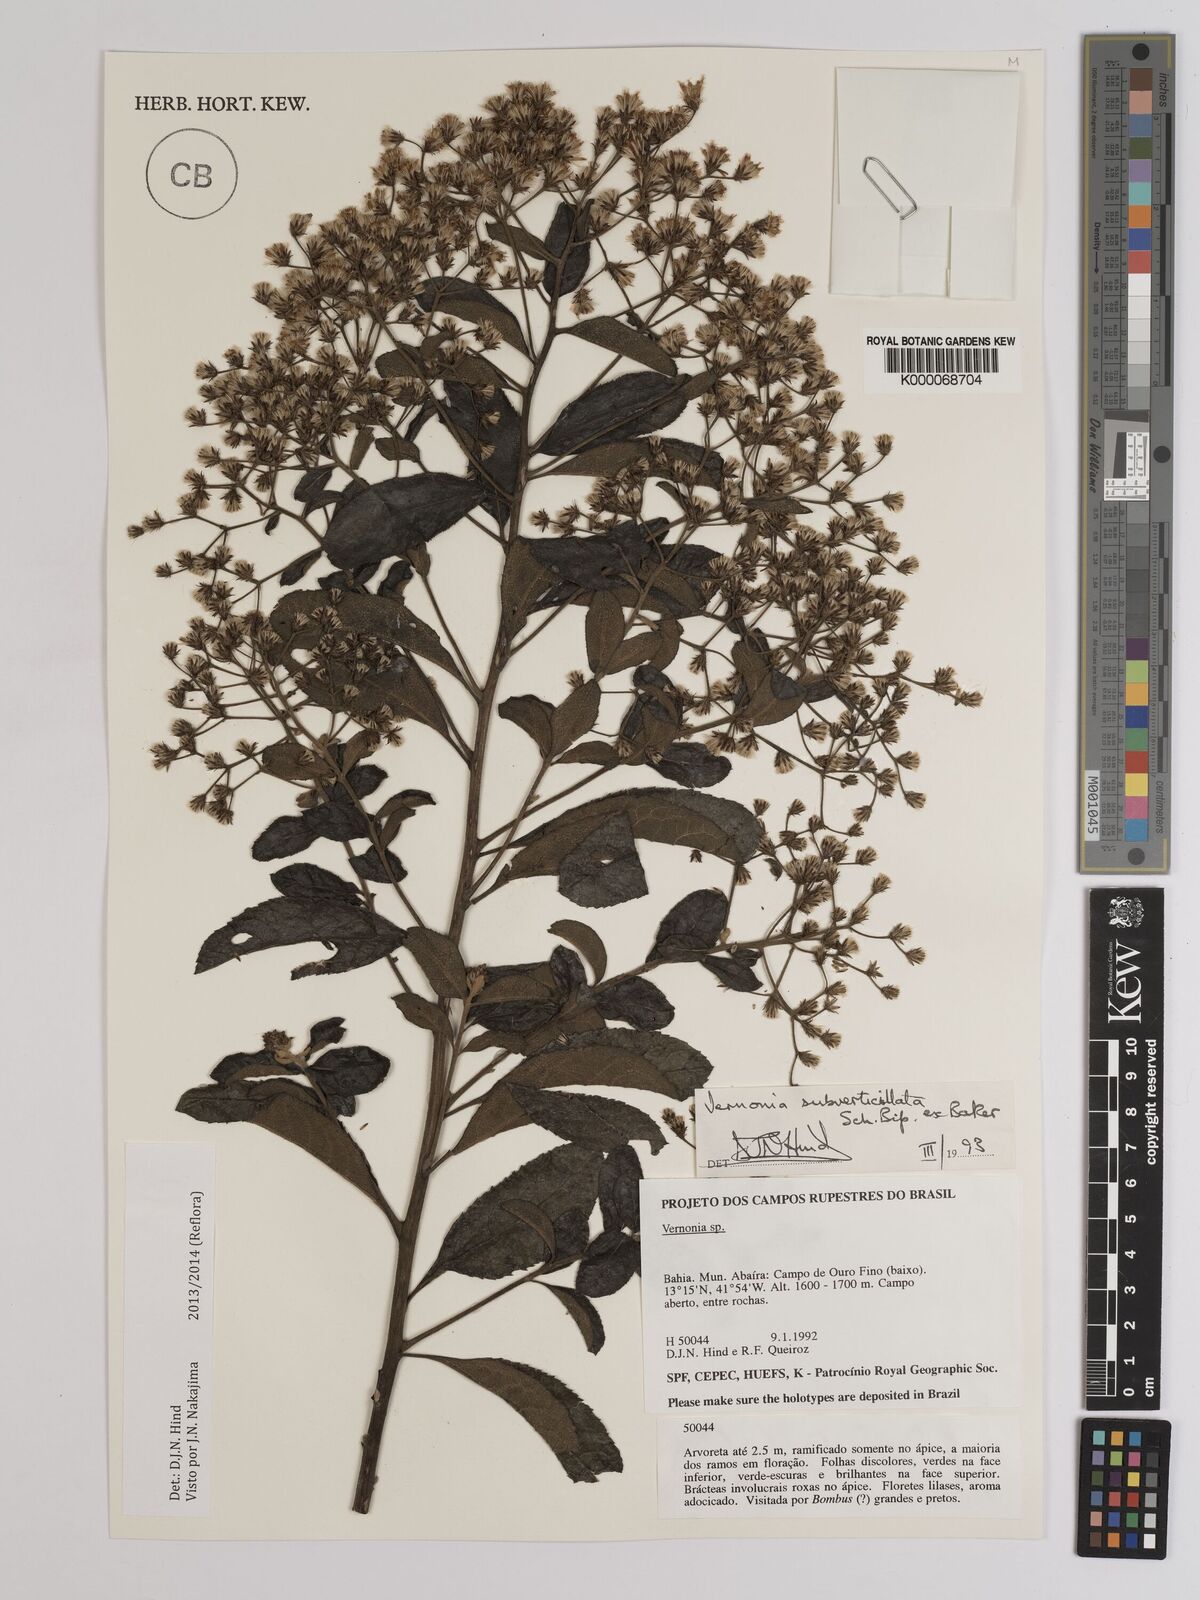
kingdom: Plantae
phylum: Tracheophyta
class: Magnoliopsida
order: Asterales
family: Asteraceae
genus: Vernonia
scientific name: Vernonia
